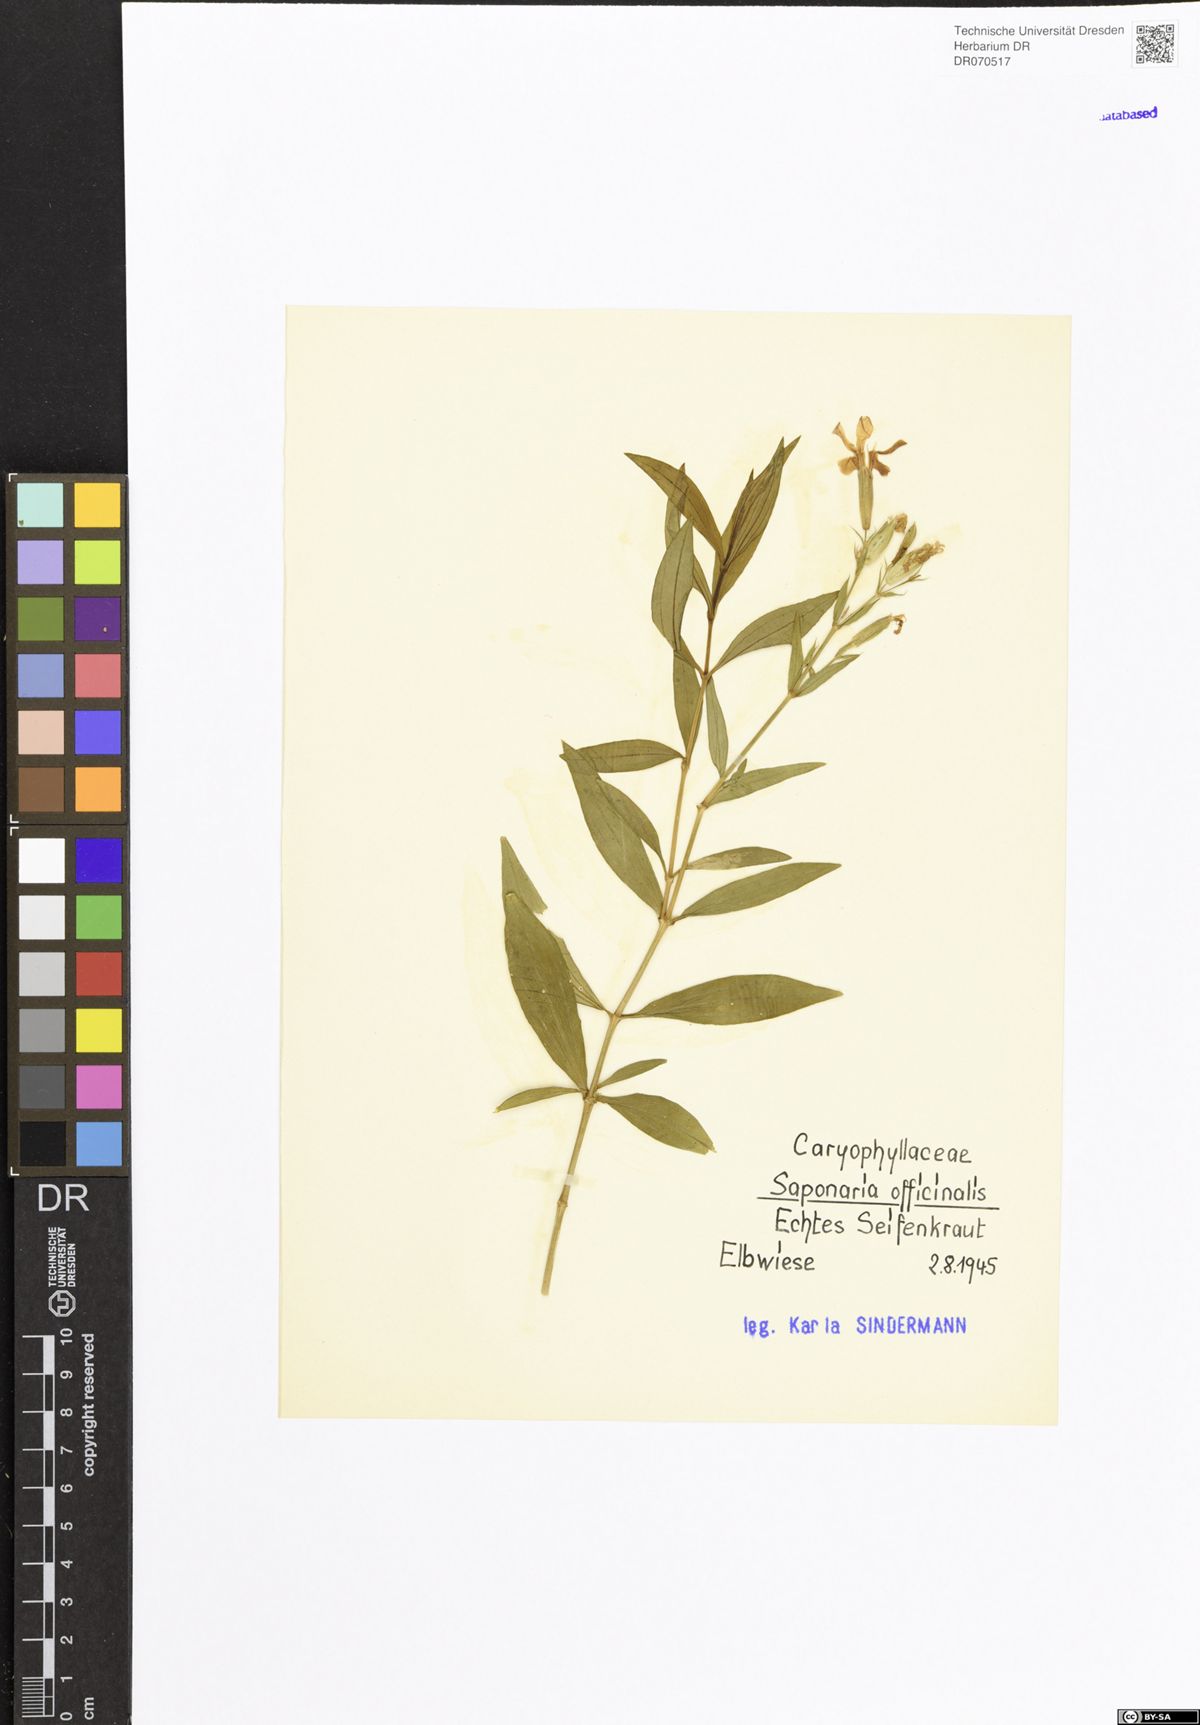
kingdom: Plantae
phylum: Tracheophyta
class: Magnoliopsida
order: Caryophyllales
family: Caryophyllaceae
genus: Saponaria
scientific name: Saponaria officinalis
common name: Soapwort
